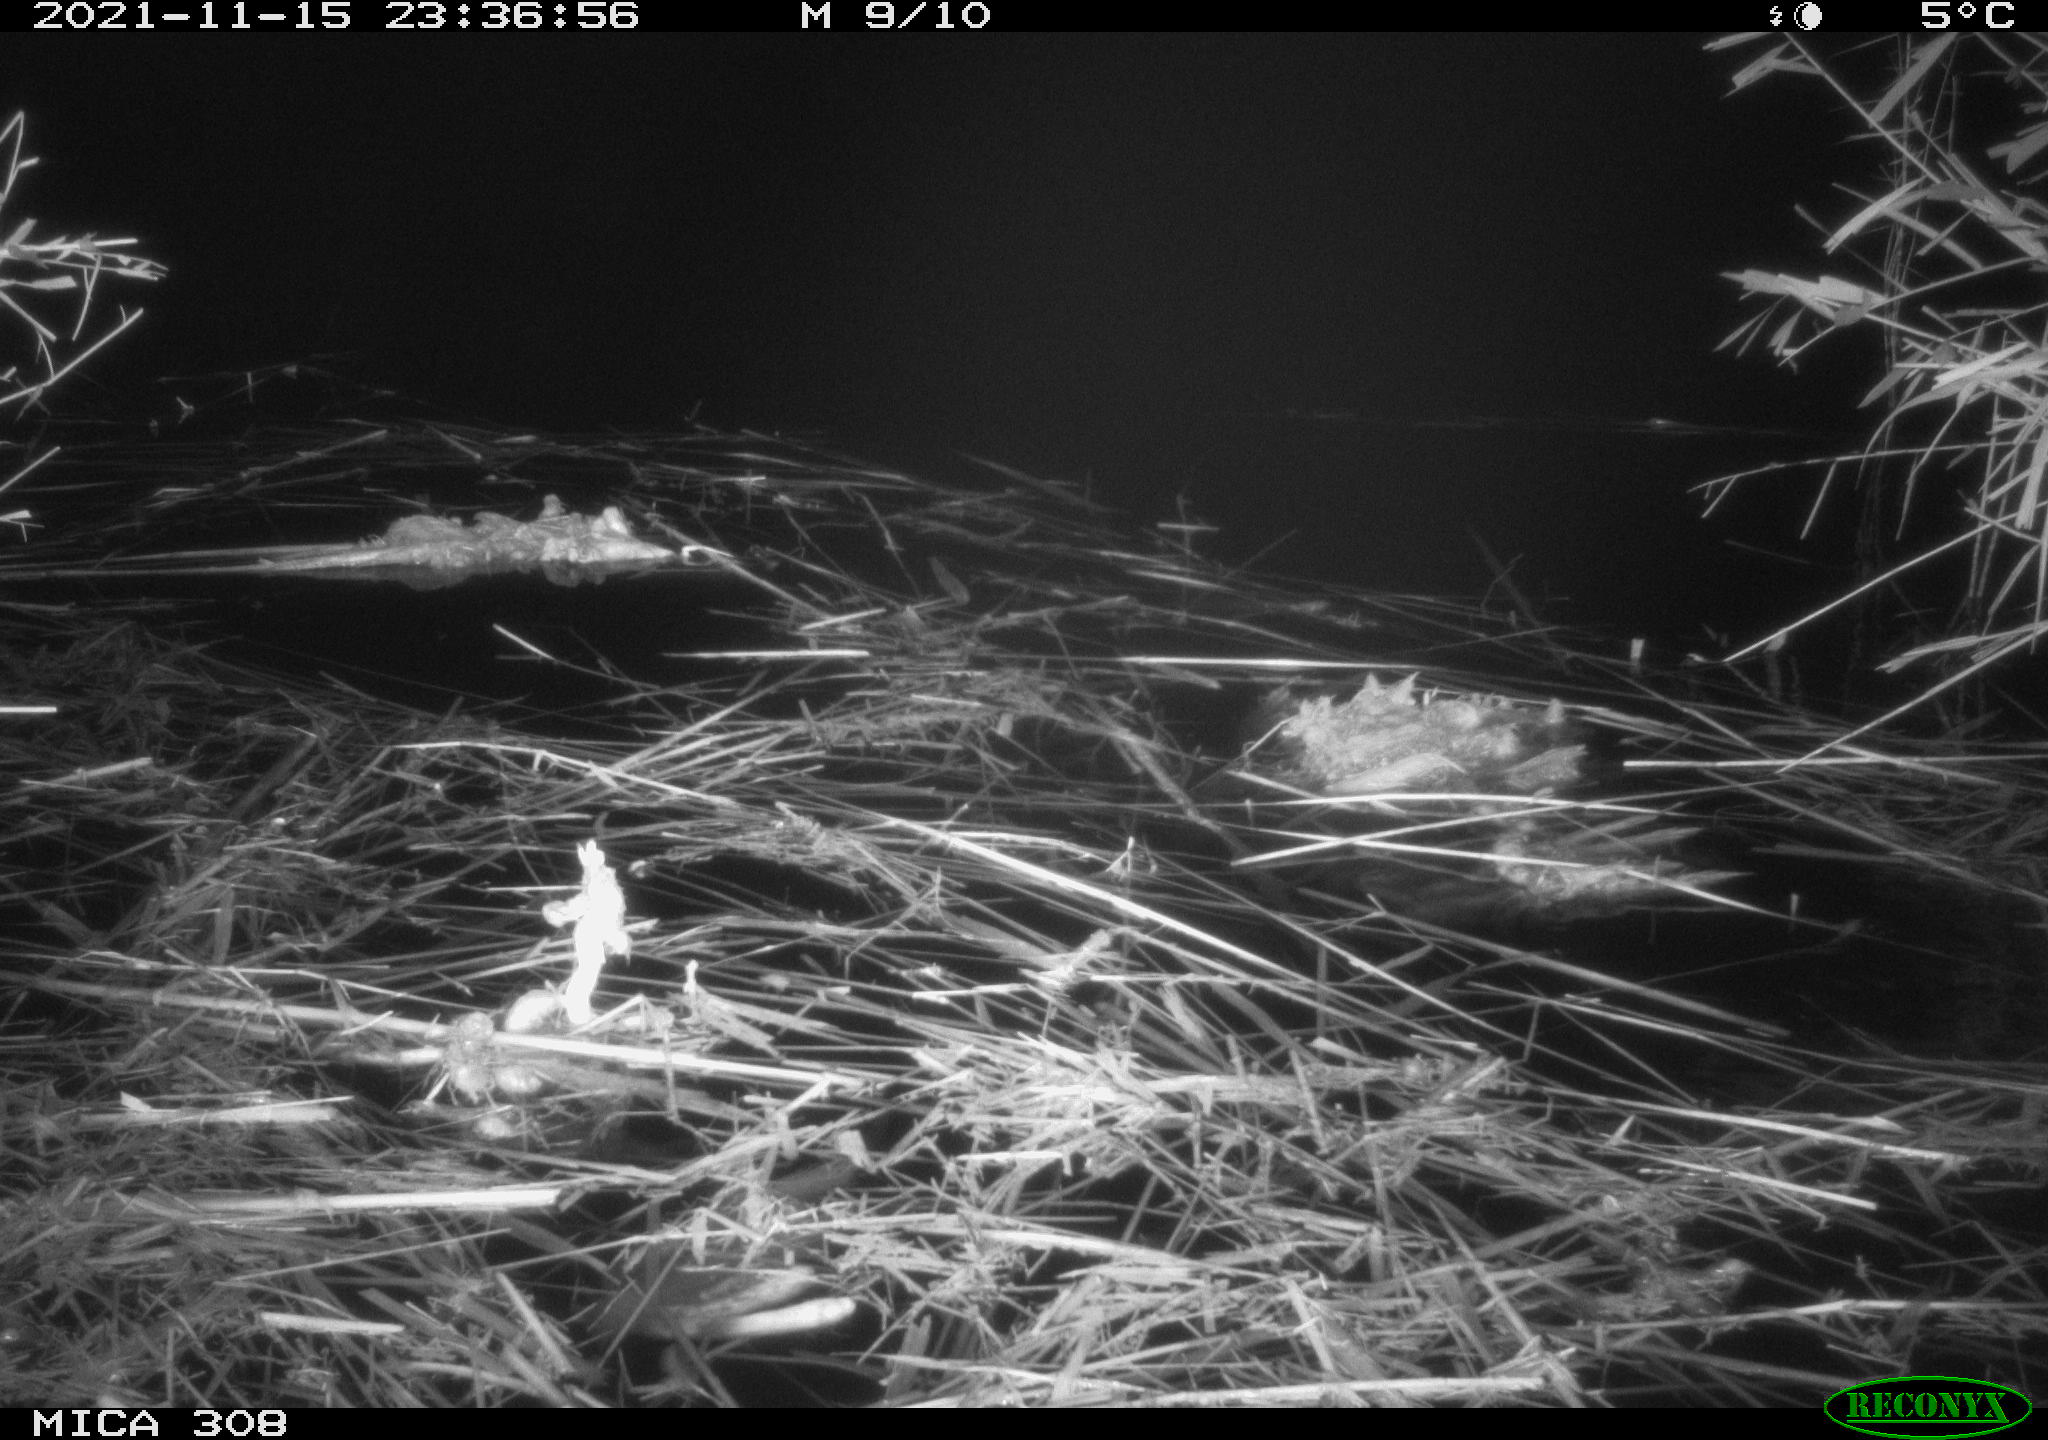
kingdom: Animalia
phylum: Chordata
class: Mammalia
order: Rodentia
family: Muridae
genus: Rattus
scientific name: Rattus norvegicus
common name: Brown rat
